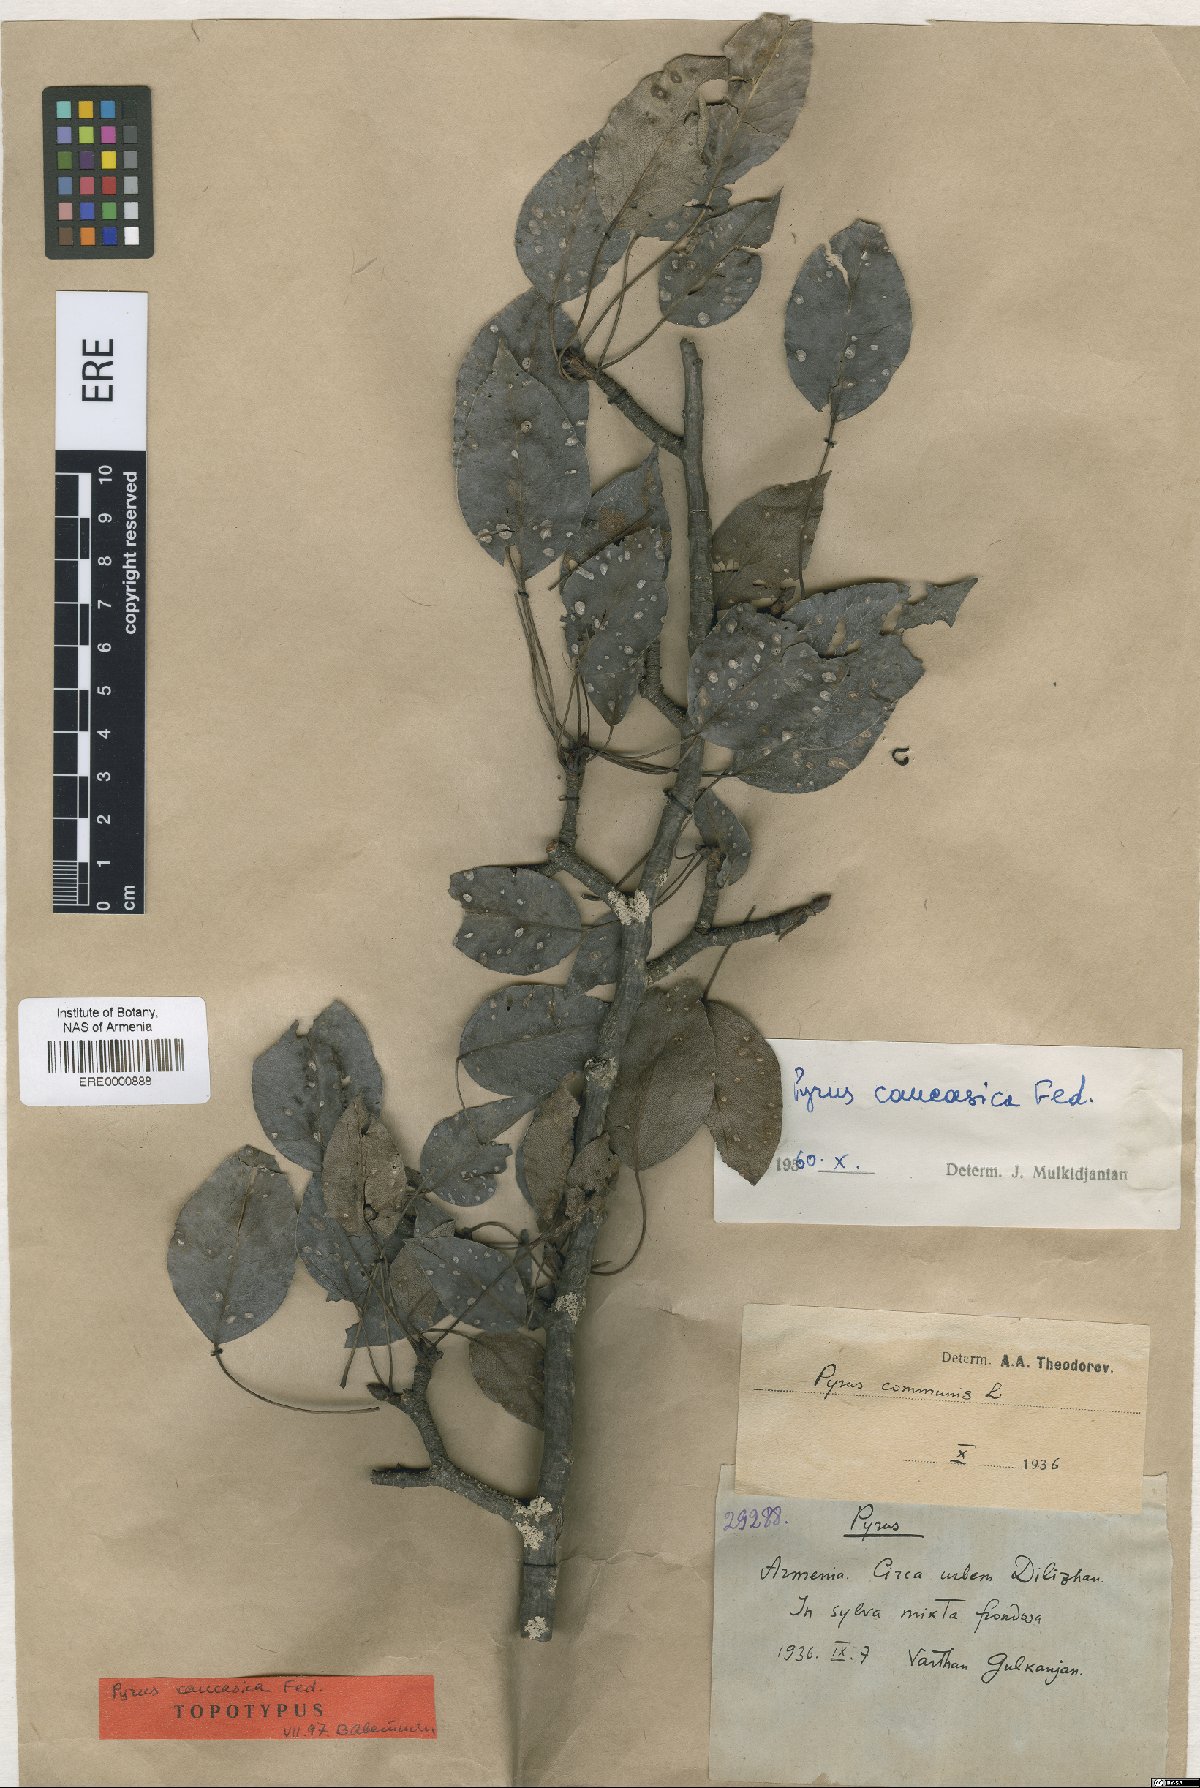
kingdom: Plantae
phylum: Tracheophyta
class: Magnoliopsida
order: Rosales
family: Rosaceae
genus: Pyrus
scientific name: Pyrus communis
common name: Pear
